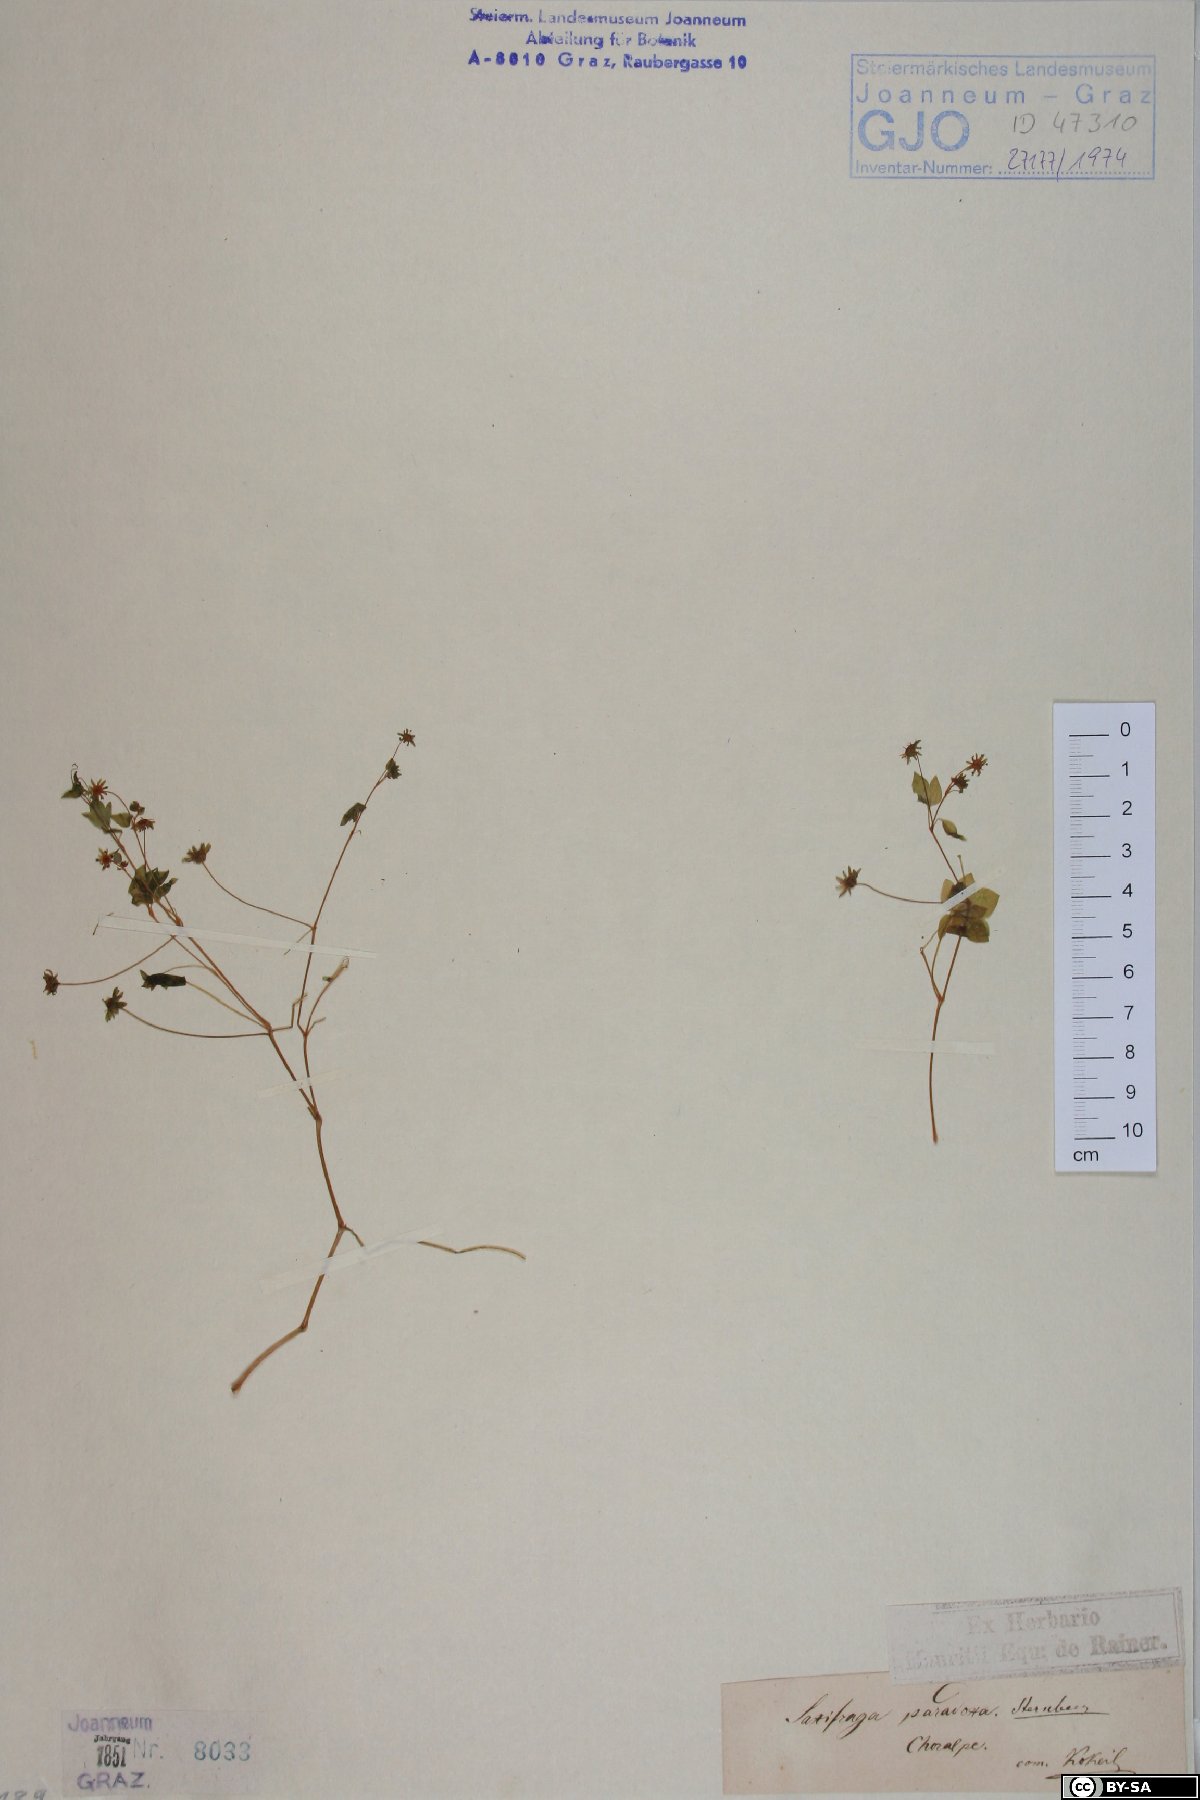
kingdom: Plantae
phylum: Tracheophyta
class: Magnoliopsida
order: Saxifragales
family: Saxifragaceae
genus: Saxifraga
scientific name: Saxifraga paradoxa
